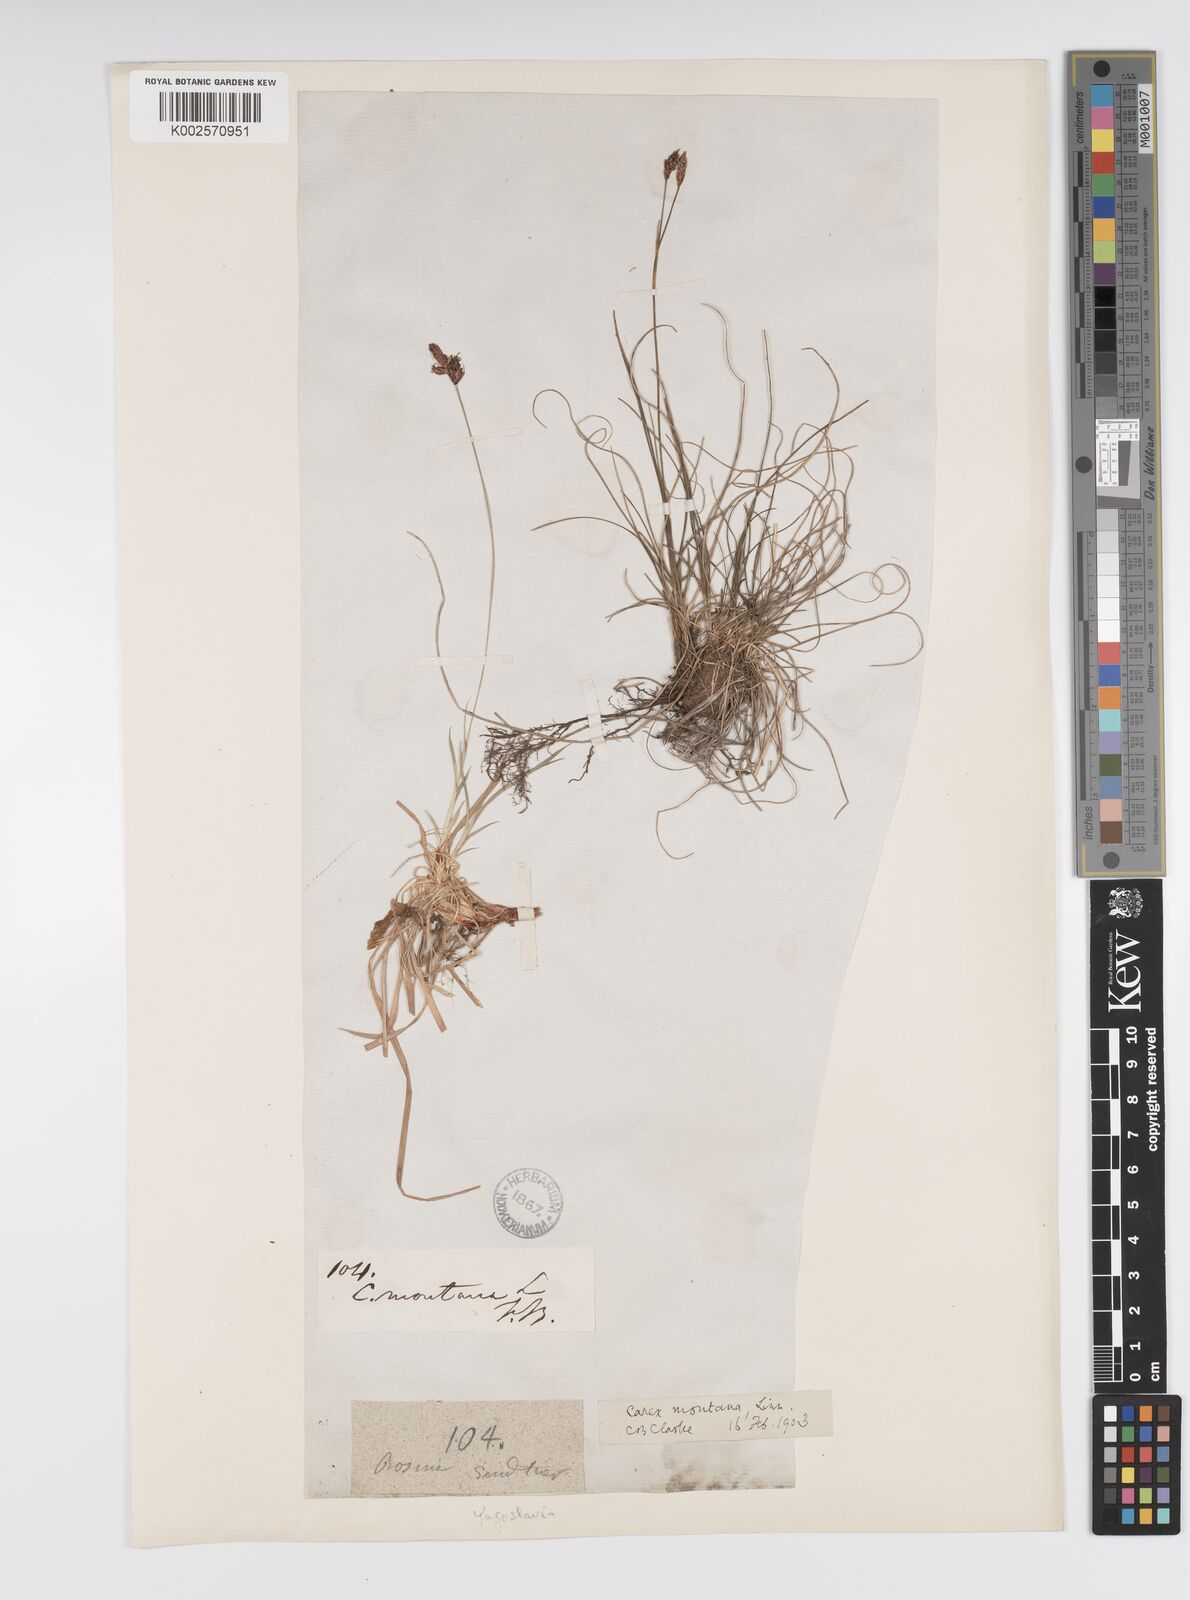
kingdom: Plantae
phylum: Tracheophyta
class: Liliopsida
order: Poales
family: Cyperaceae
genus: Carex
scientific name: Carex montana
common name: Soft-leaved sedge
